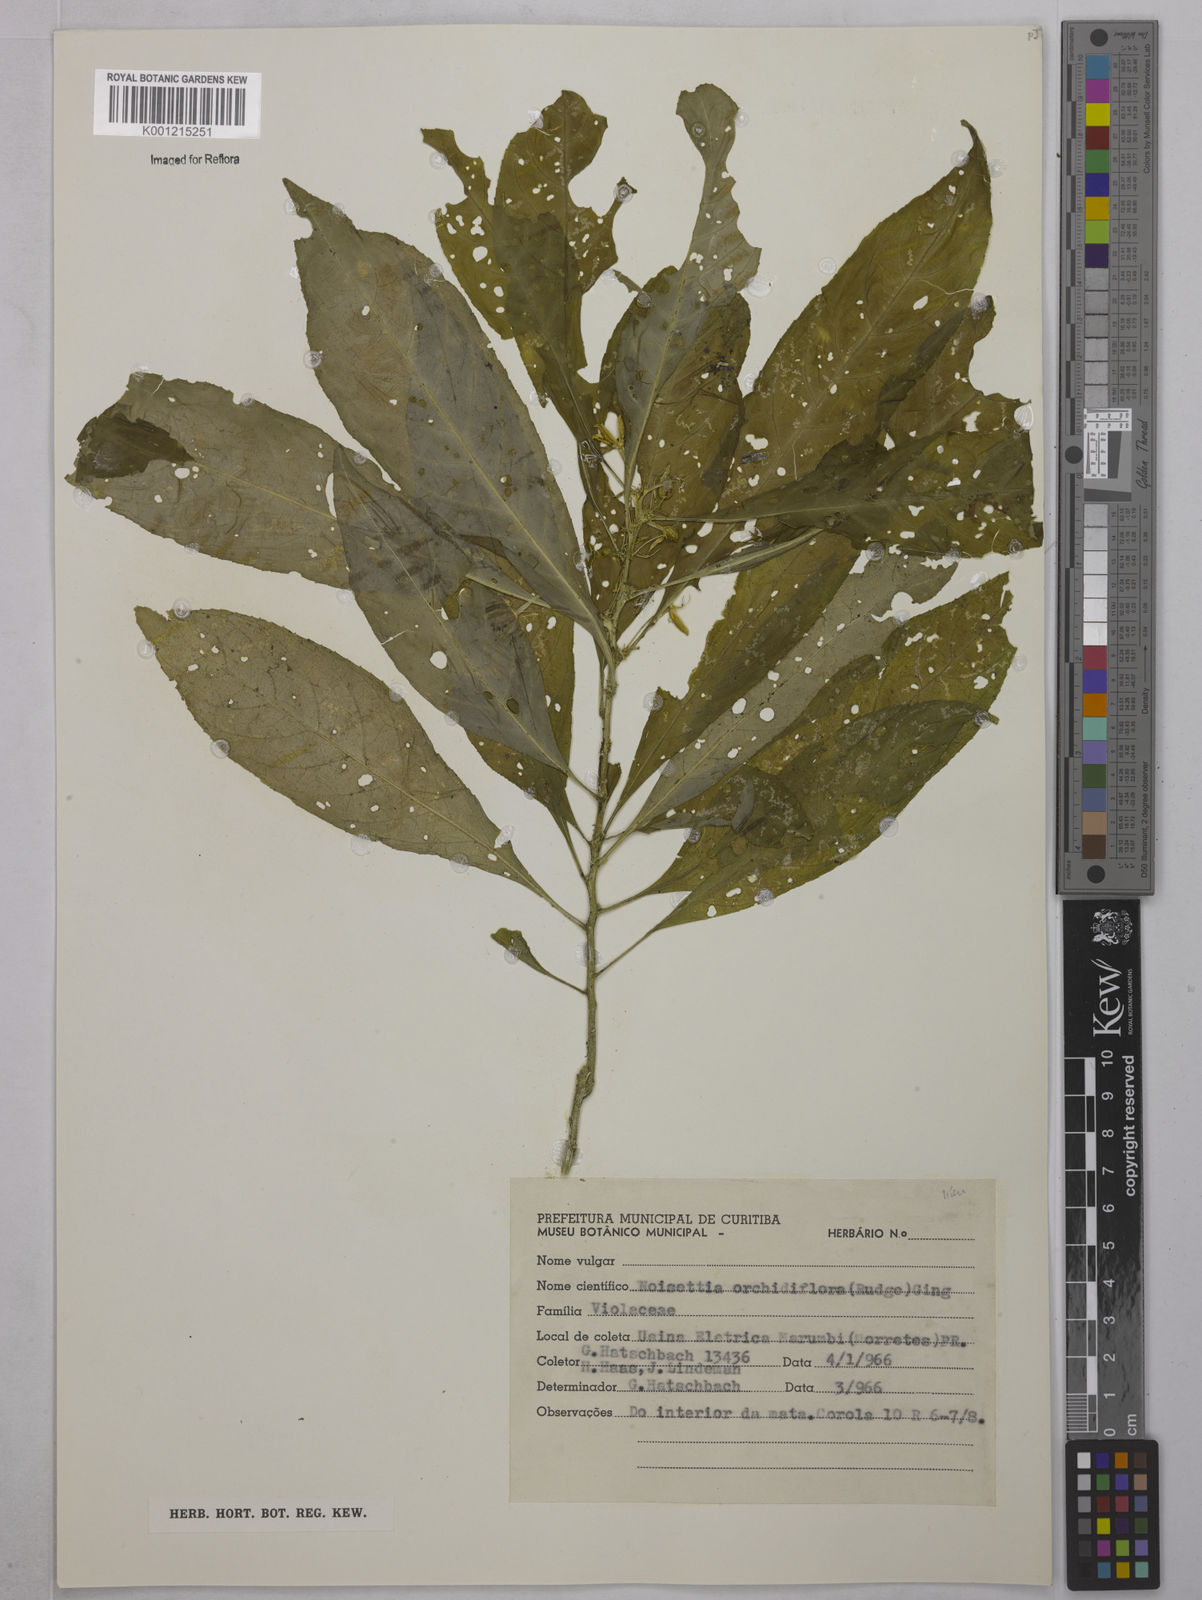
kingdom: Plantae
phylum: Tracheophyta
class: Magnoliopsida
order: Malpighiales
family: Violaceae
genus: Noisettia
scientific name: Noisettia orchidiflora
